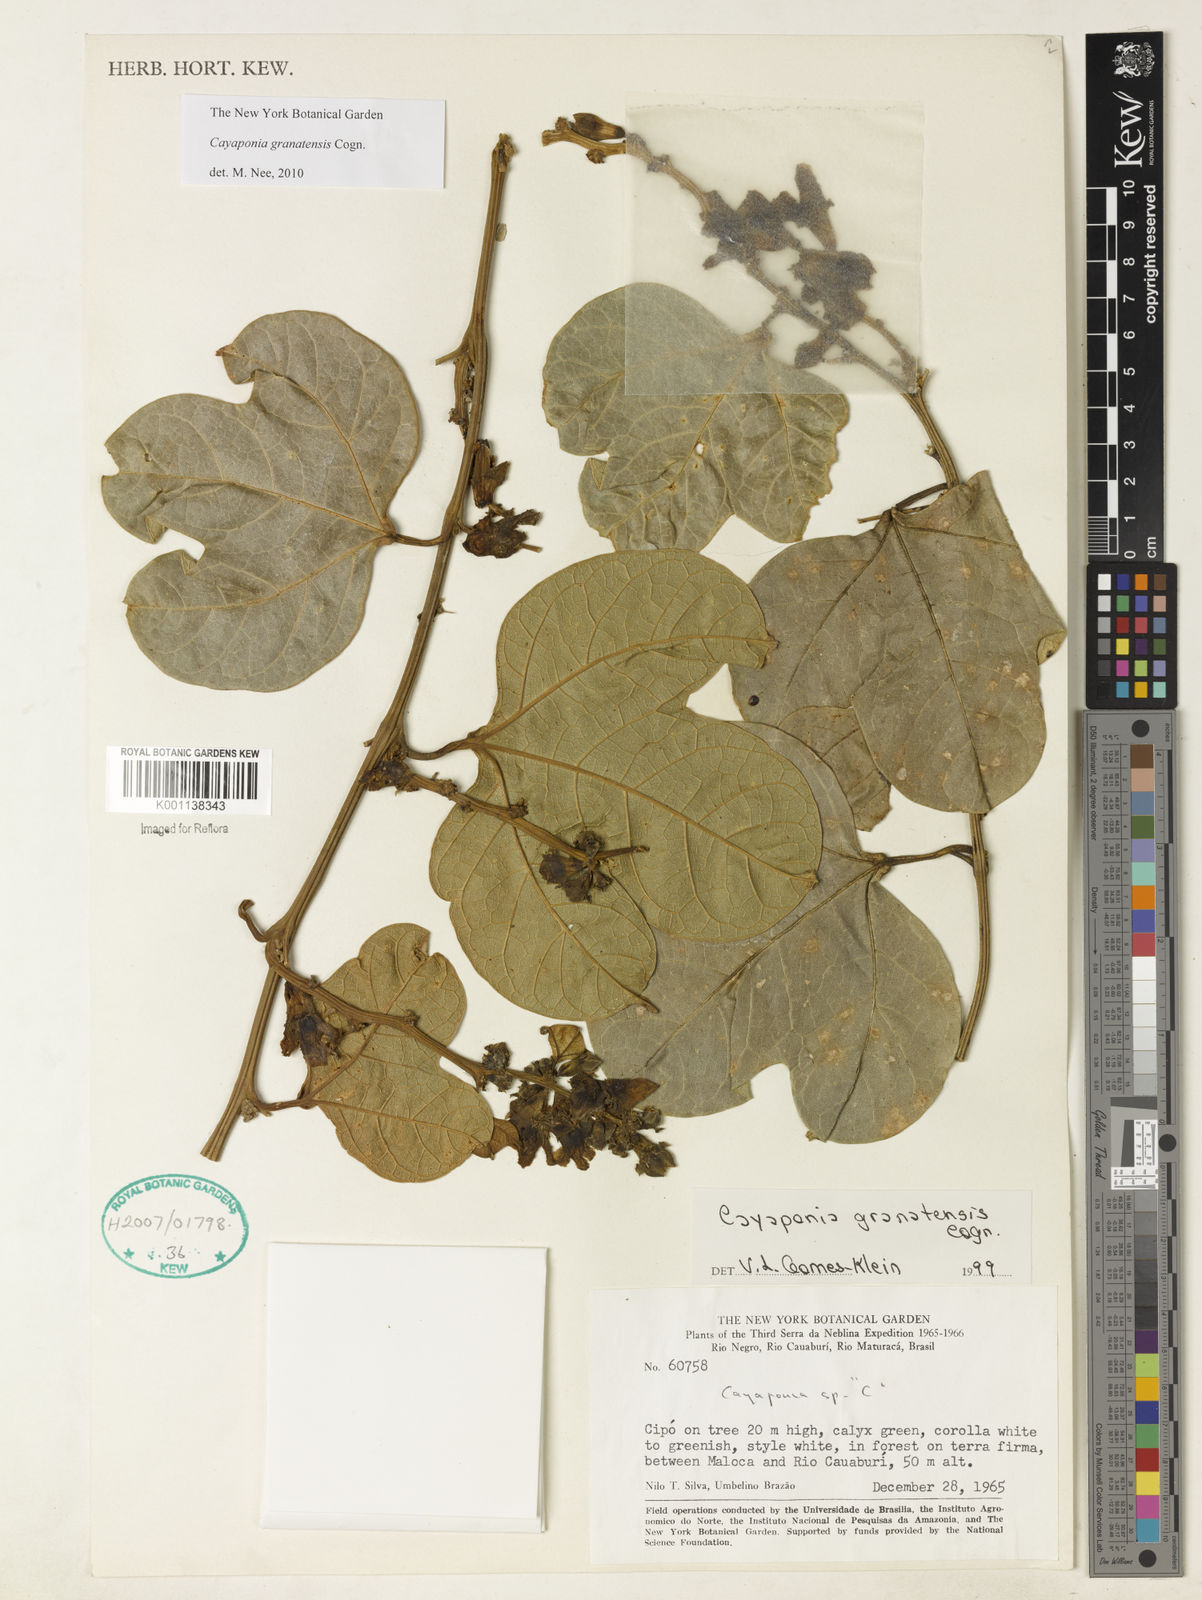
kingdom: Plantae
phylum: Tracheophyta
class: Magnoliopsida
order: Cucurbitales
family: Cucurbitaceae
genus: Cayaponia
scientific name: Cayaponia granatensis
